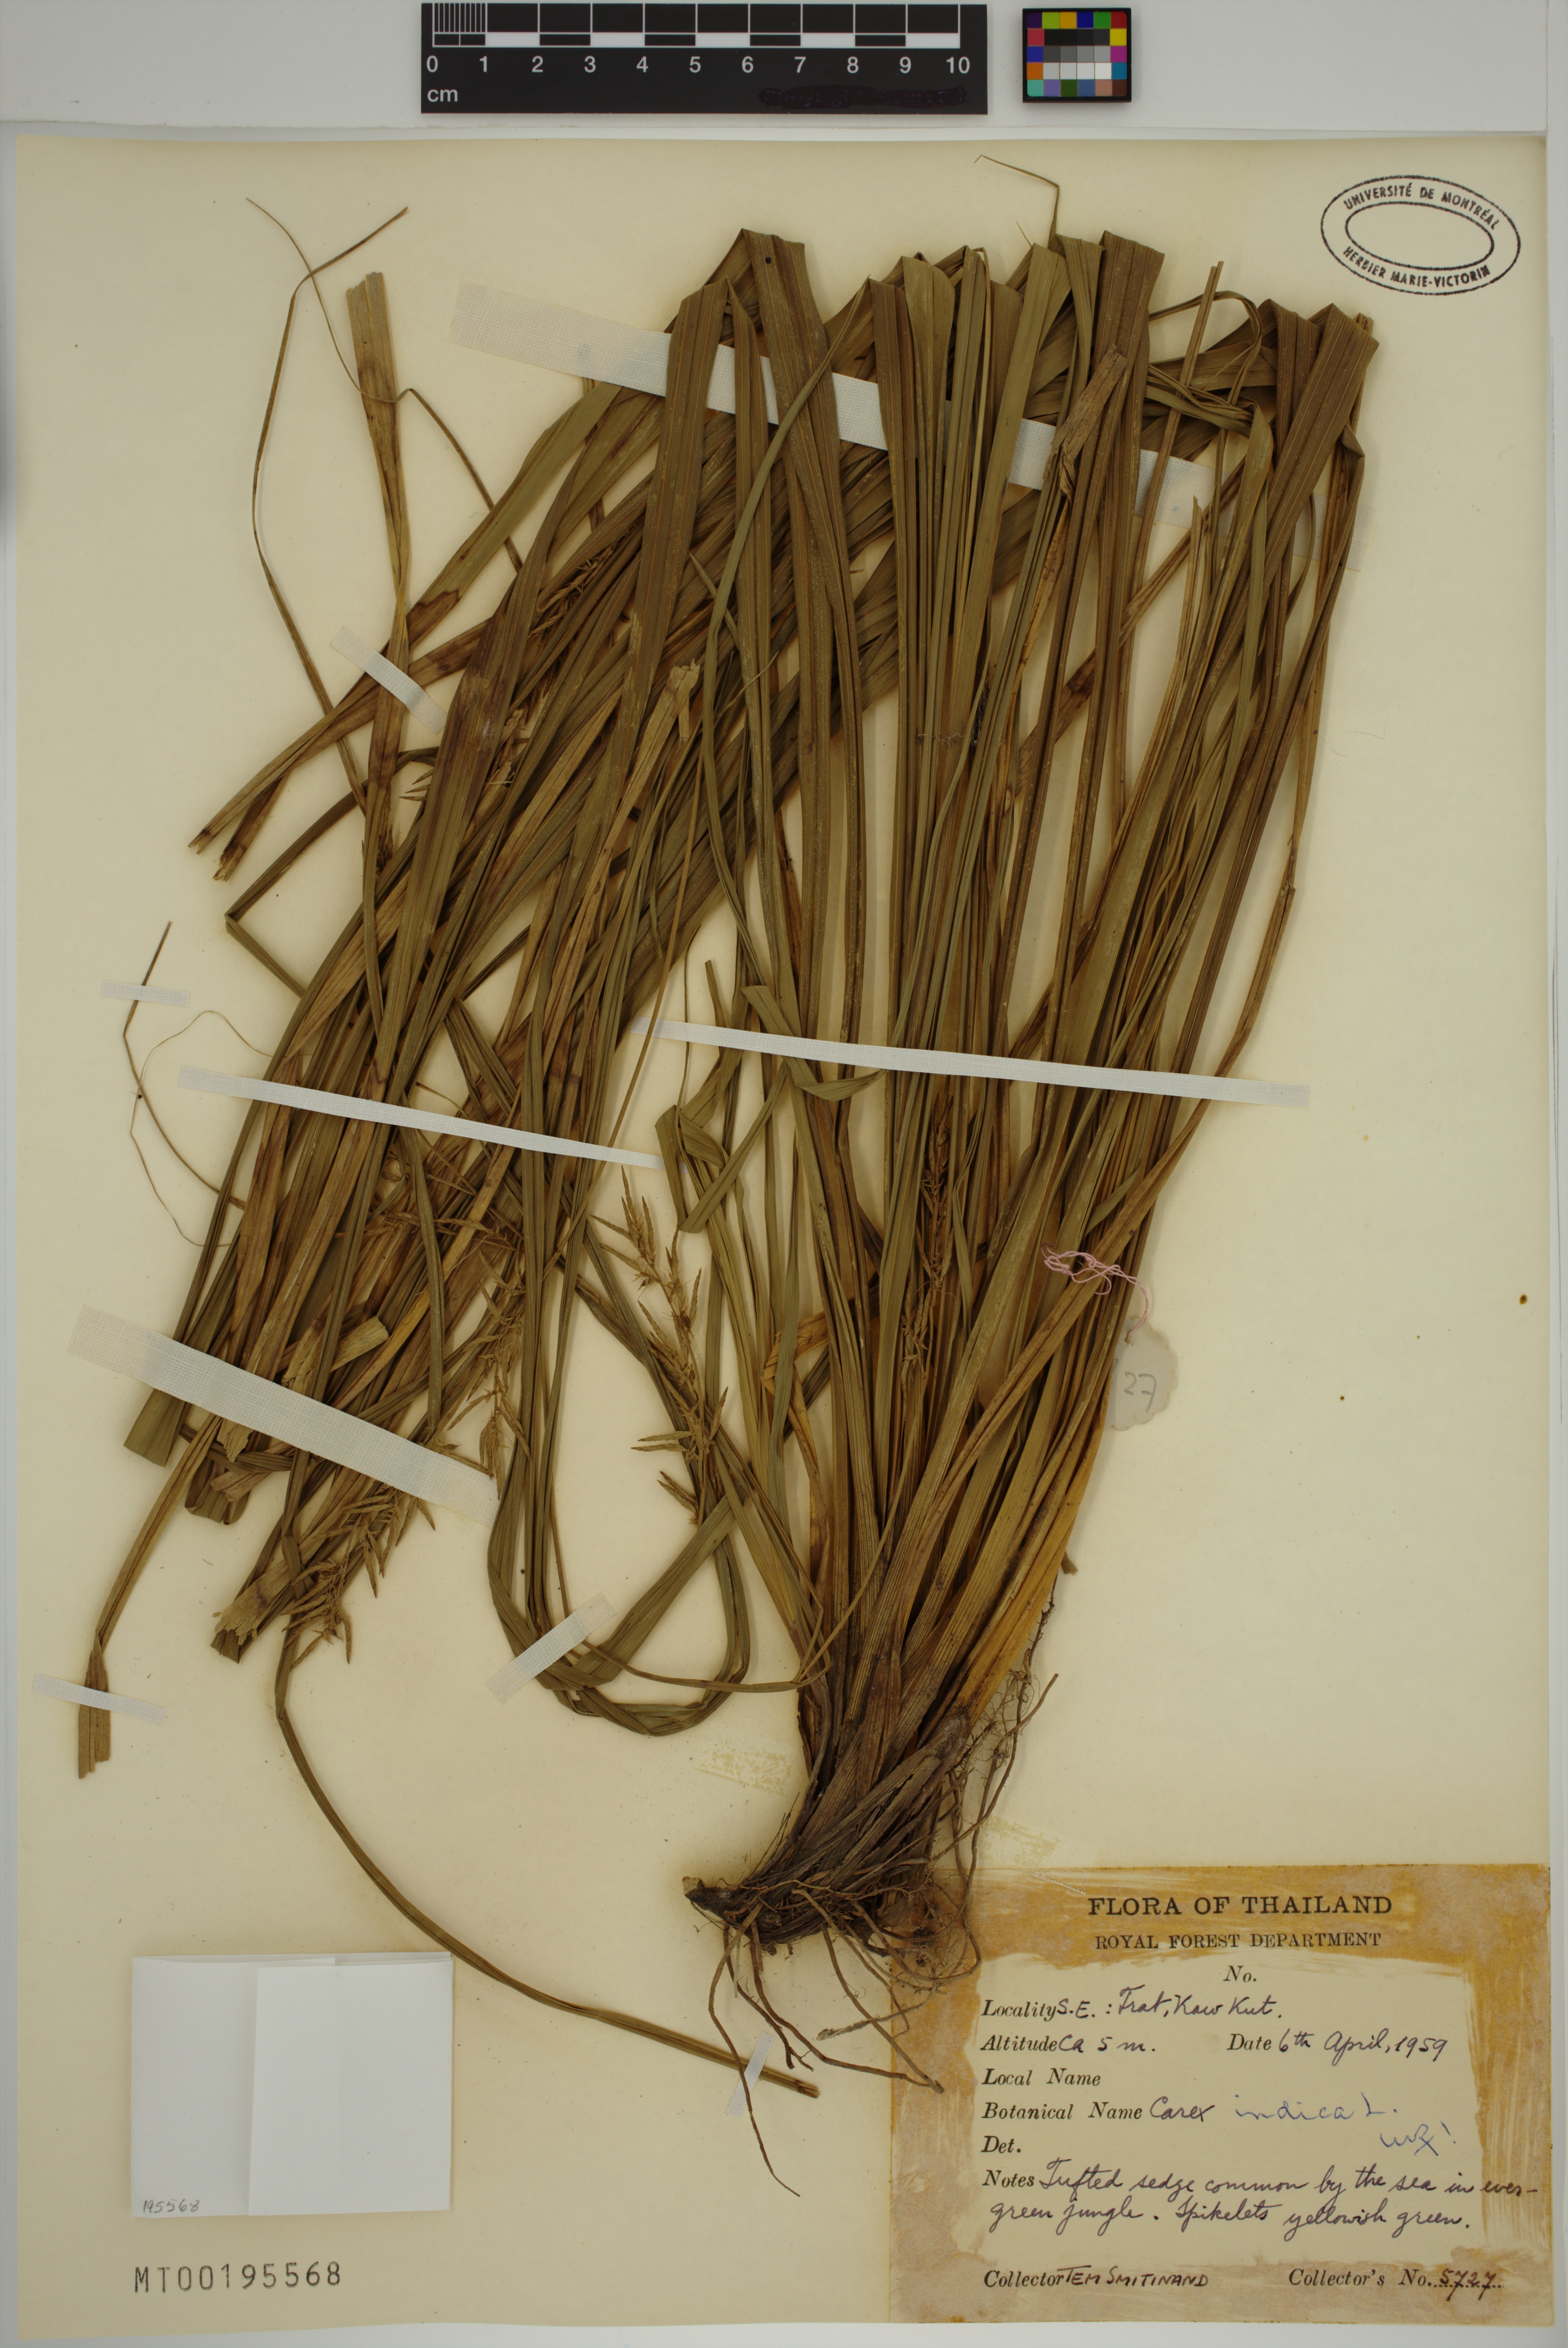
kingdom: Plantae
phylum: Tracheophyta
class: Liliopsida
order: Poales
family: Cyperaceae
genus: Carex
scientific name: Carex indica
